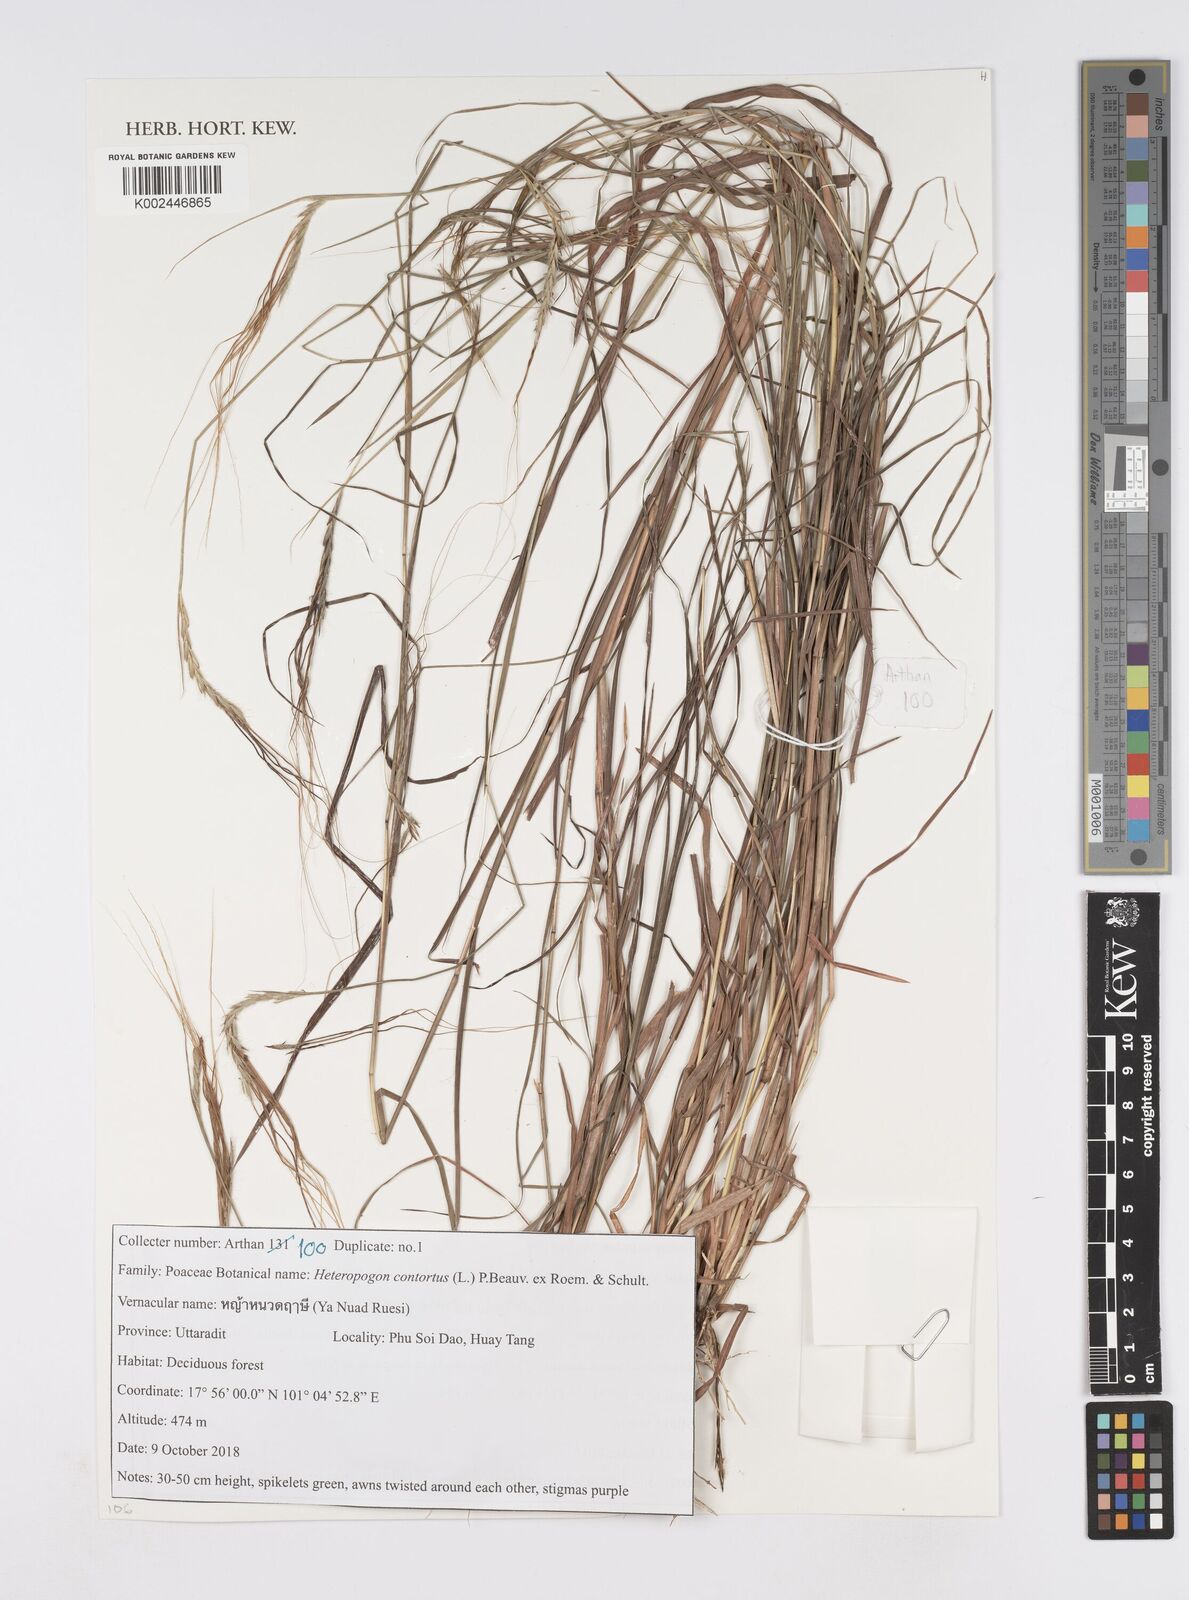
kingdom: Plantae
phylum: Tracheophyta
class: Liliopsida
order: Poales
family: Poaceae
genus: Heteropogon
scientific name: Heteropogon contortus
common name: Tanglehead
